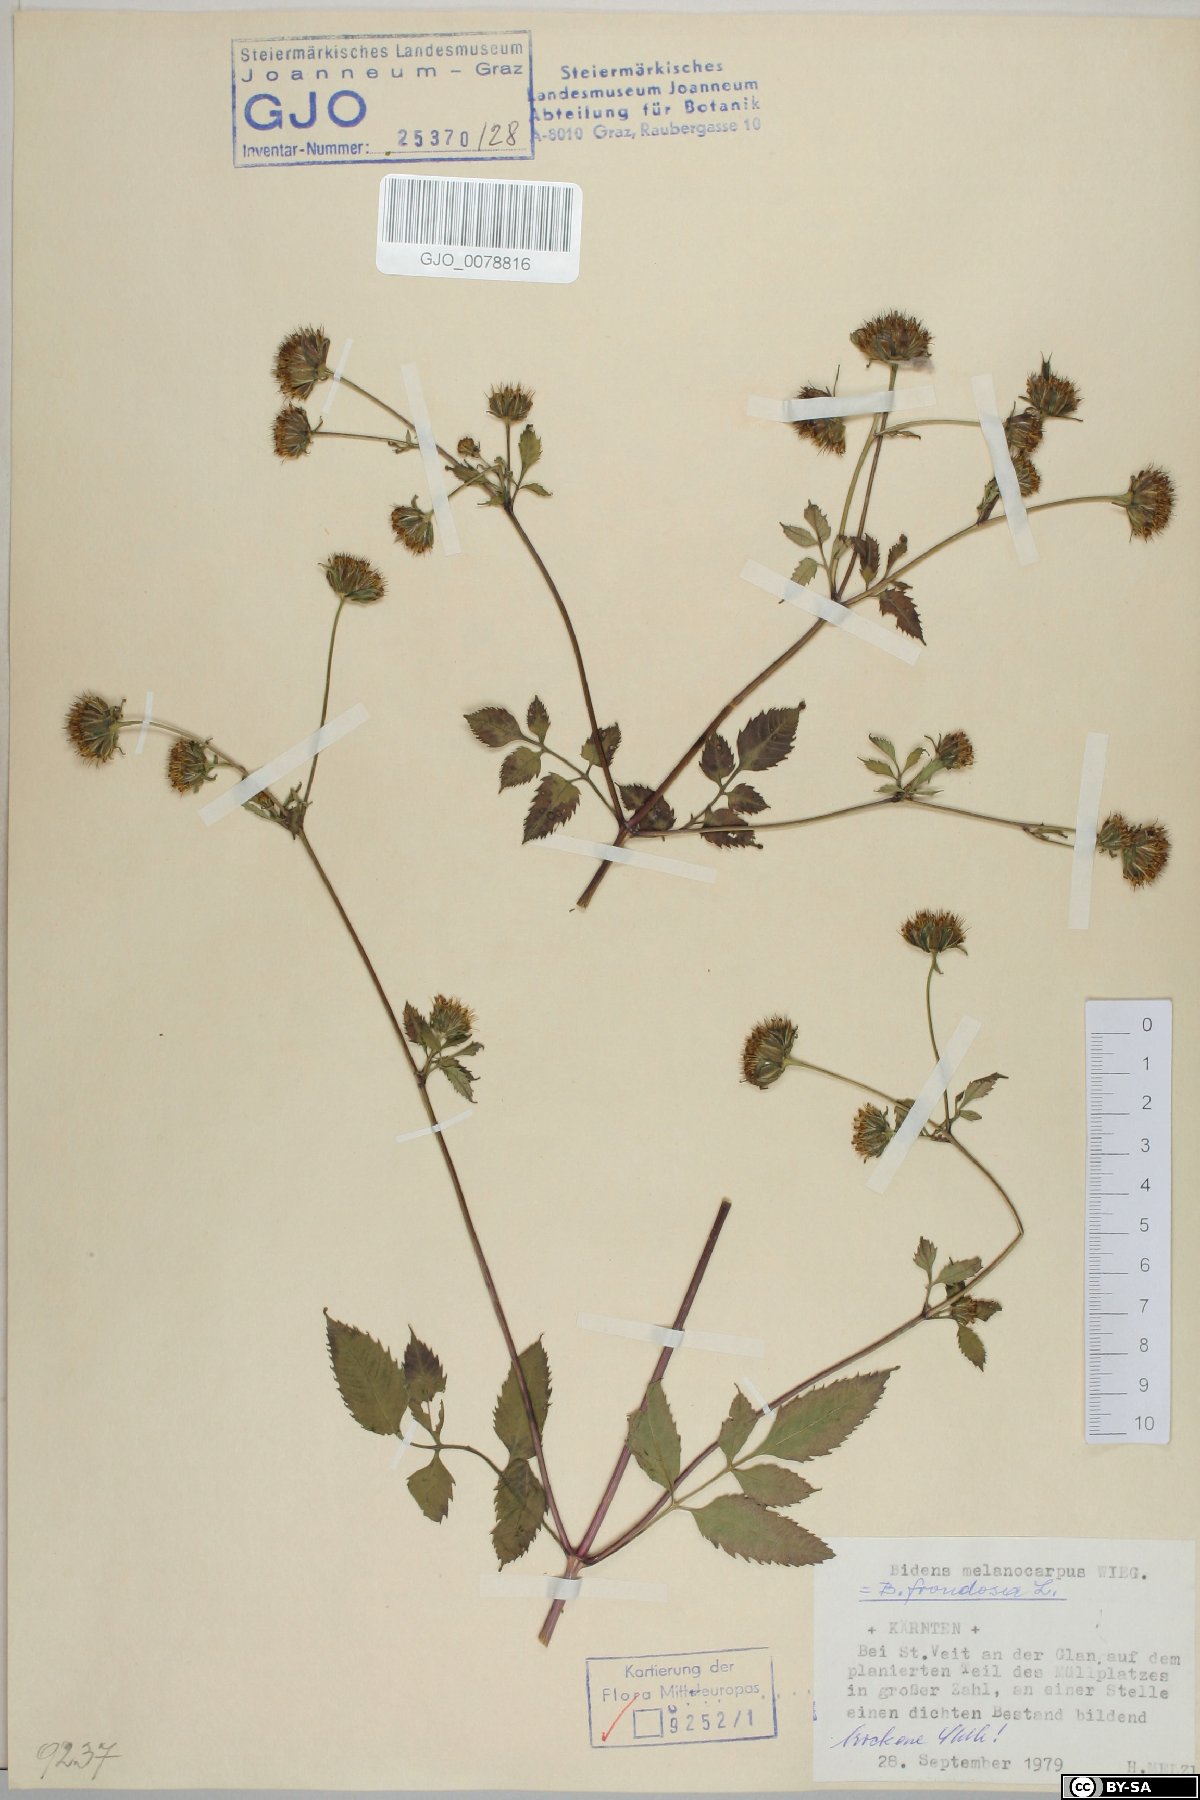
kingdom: Plantae
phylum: Tracheophyta
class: Magnoliopsida
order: Asterales
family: Asteraceae
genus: Bidens
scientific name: Bidens frondosa
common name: Beggarticks
